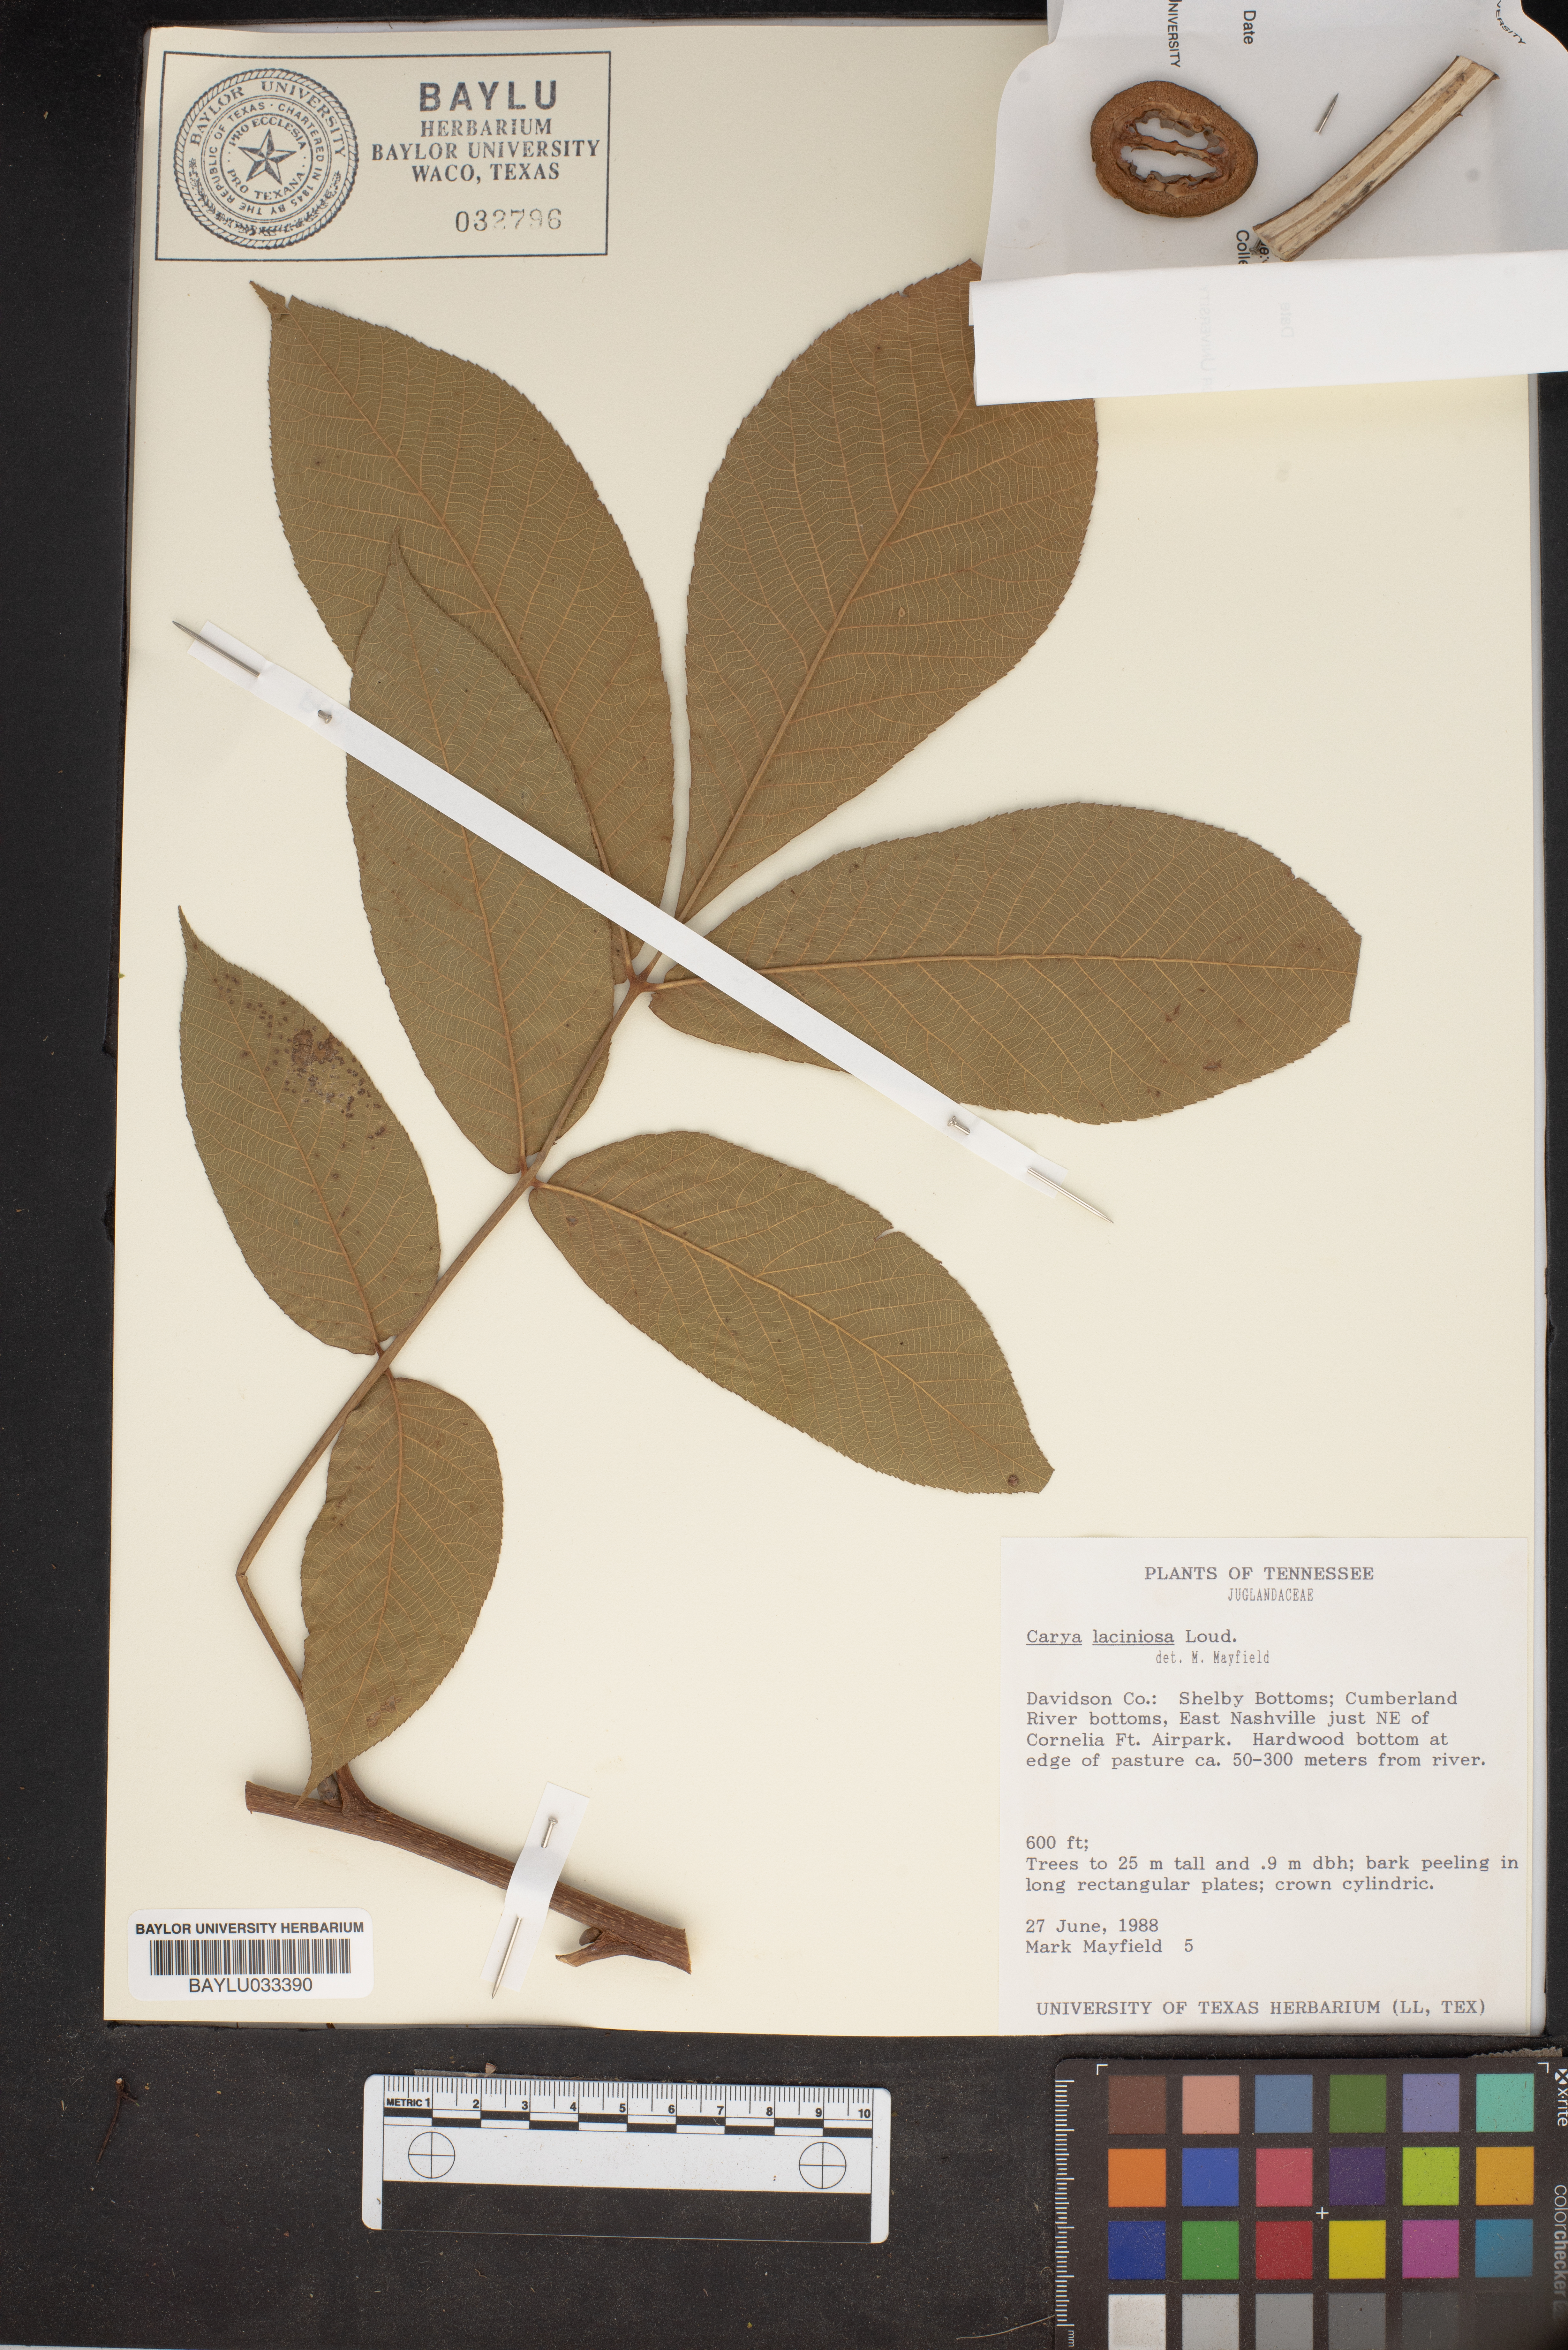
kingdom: Plantae
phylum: Tracheophyta
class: Magnoliopsida
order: Fagales
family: Juglandaceae
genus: Carya
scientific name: Carya laciniosa
